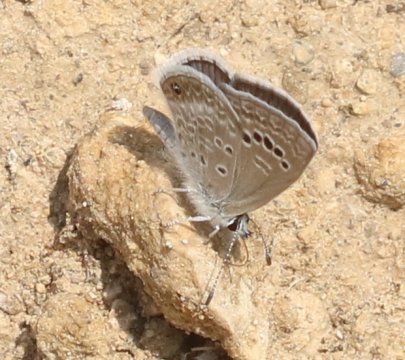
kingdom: Animalia
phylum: Arthropoda
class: Insecta
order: Lepidoptera
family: Lycaenidae
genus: Echinargus
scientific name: Echinargus isola
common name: Reakirt's Blue
